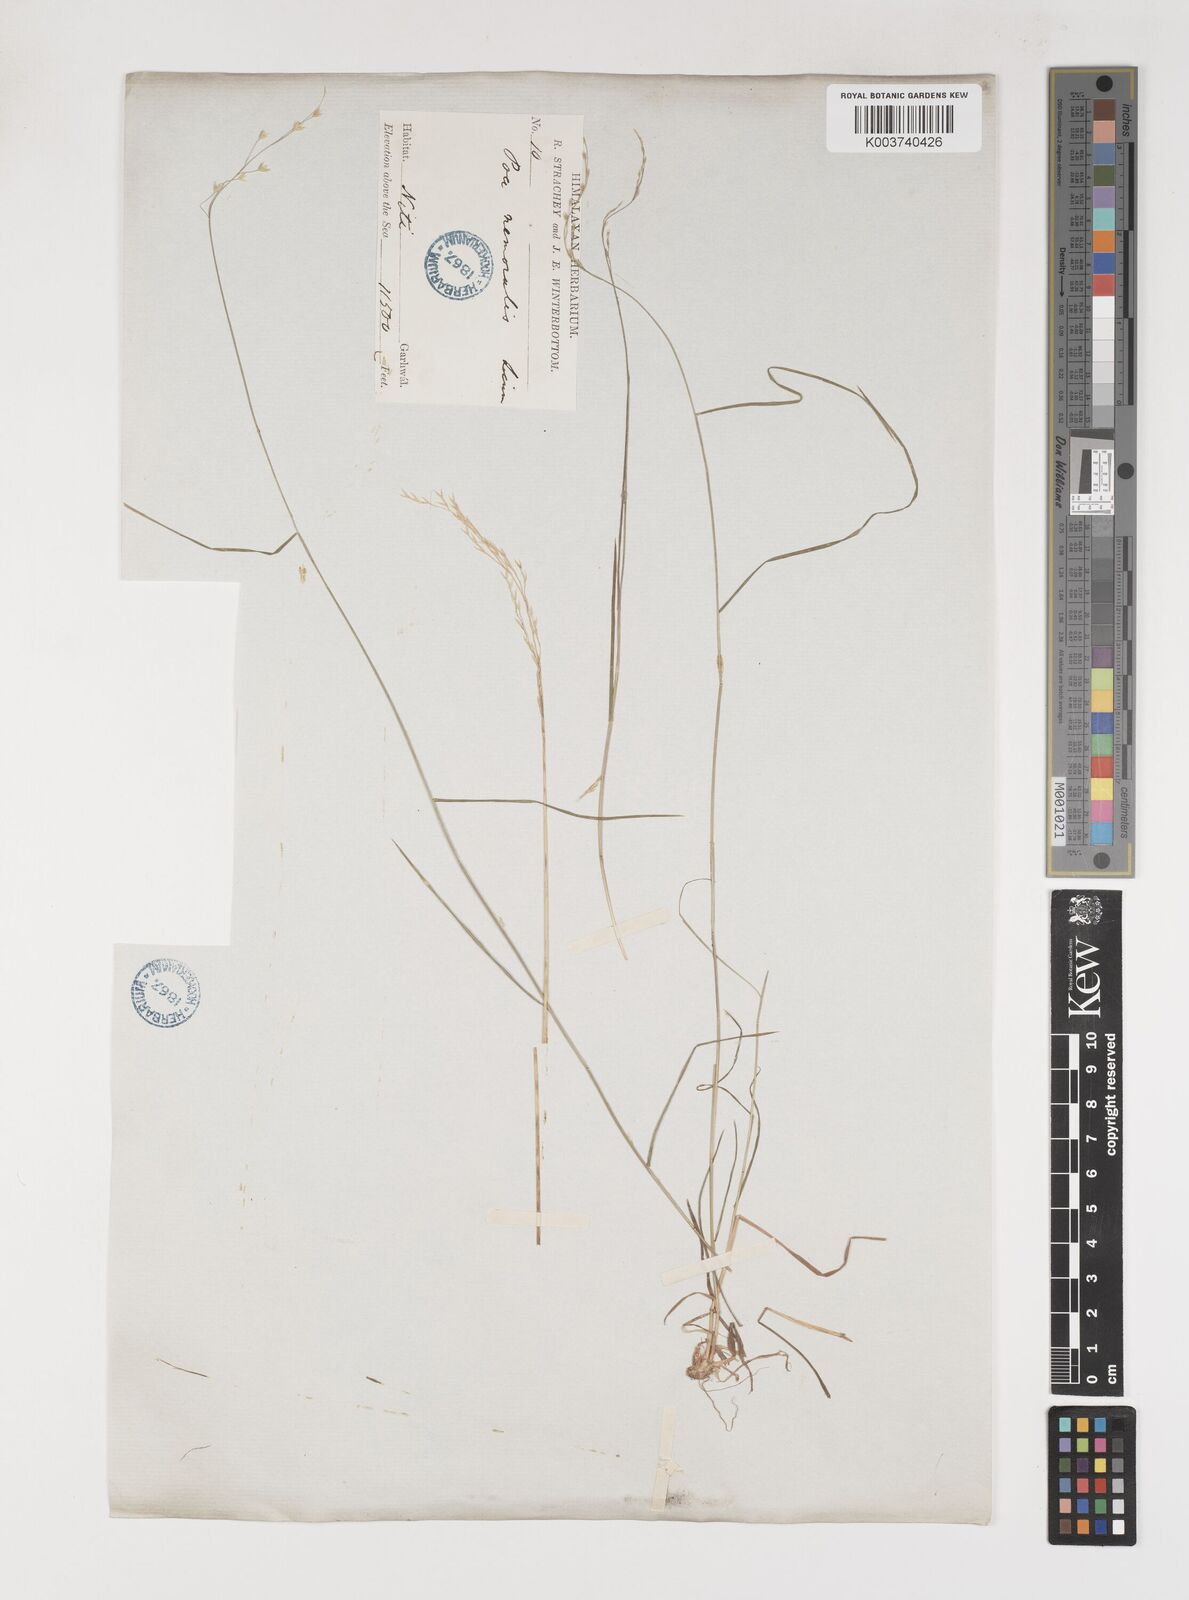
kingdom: Plantae
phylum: Tracheophyta
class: Liliopsida
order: Poales
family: Poaceae
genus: Poa
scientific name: Poa nemoralis
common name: Wood bluegrass
